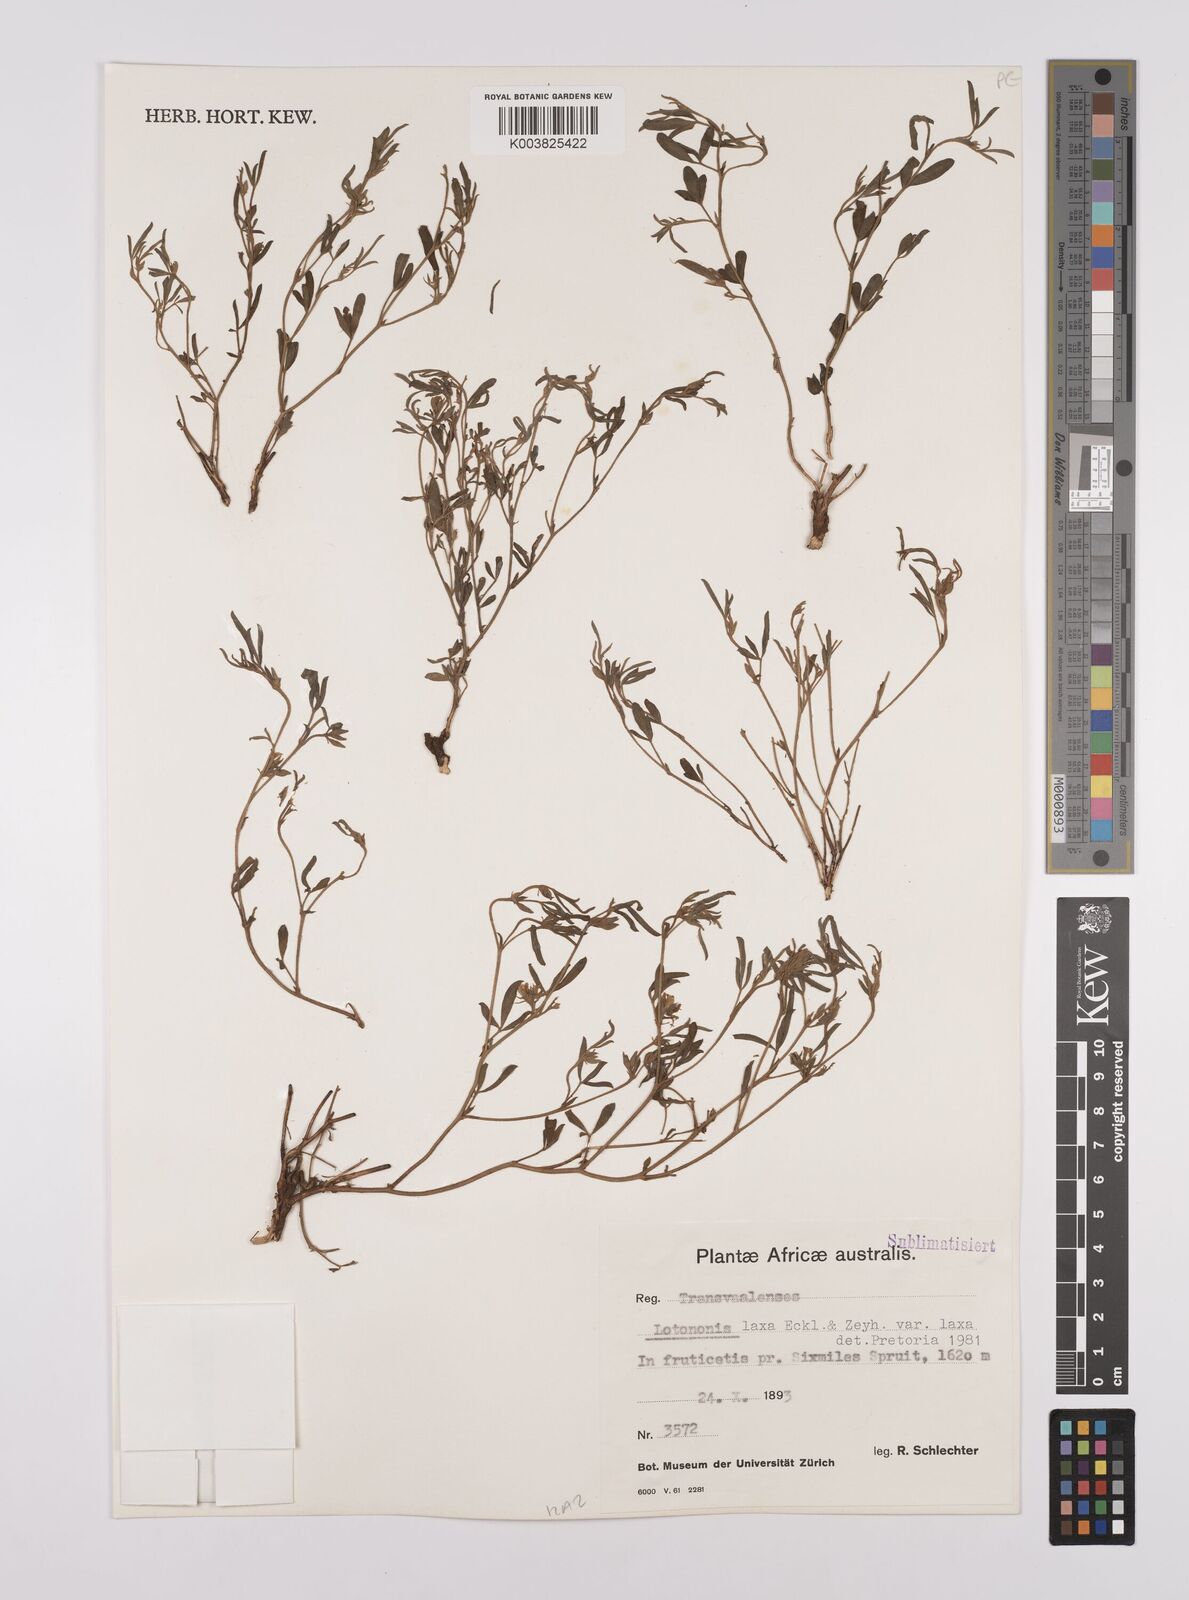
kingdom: Plantae
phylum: Tracheophyta
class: Magnoliopsida
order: Fabales
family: Fabaceae
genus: Lotononis
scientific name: Lotononis laxa
